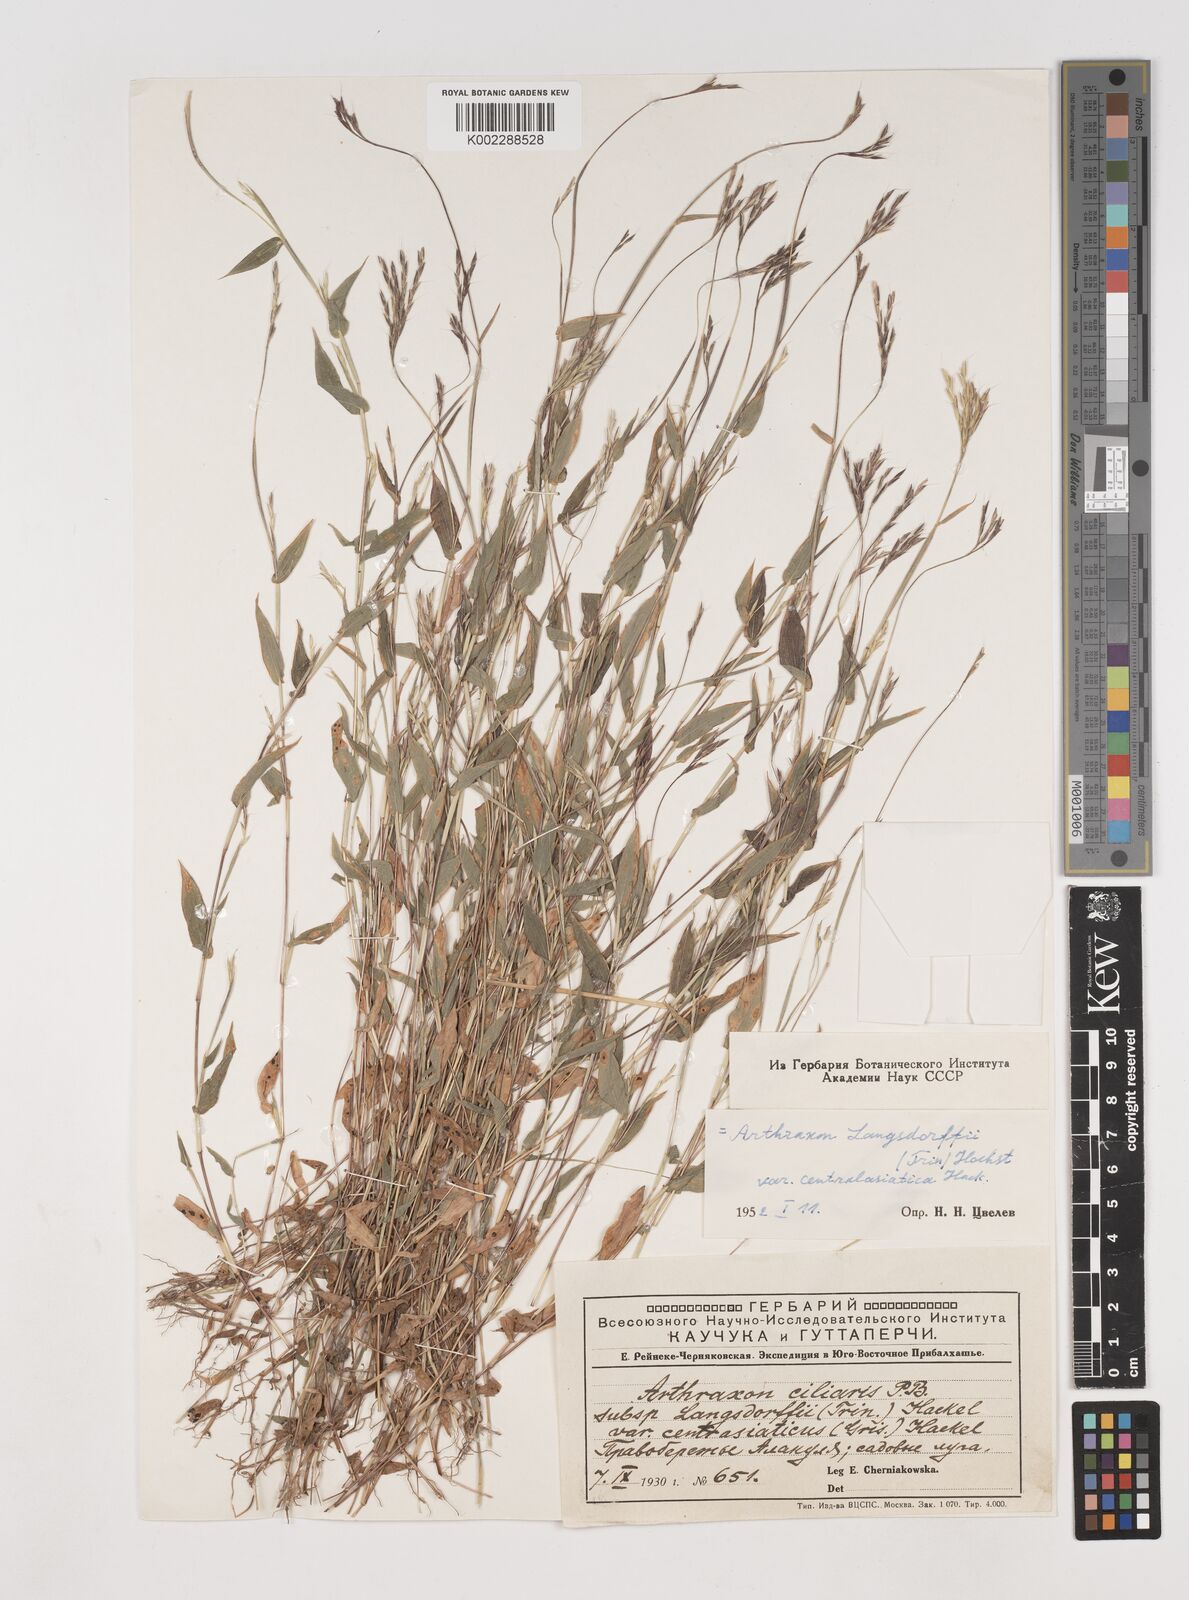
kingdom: Plantae
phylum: Tracheophyta
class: Liliopsida
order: Poales
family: Poaceae
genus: Arthraxon
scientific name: Arthraxon hispidus
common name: Small carpgrass
